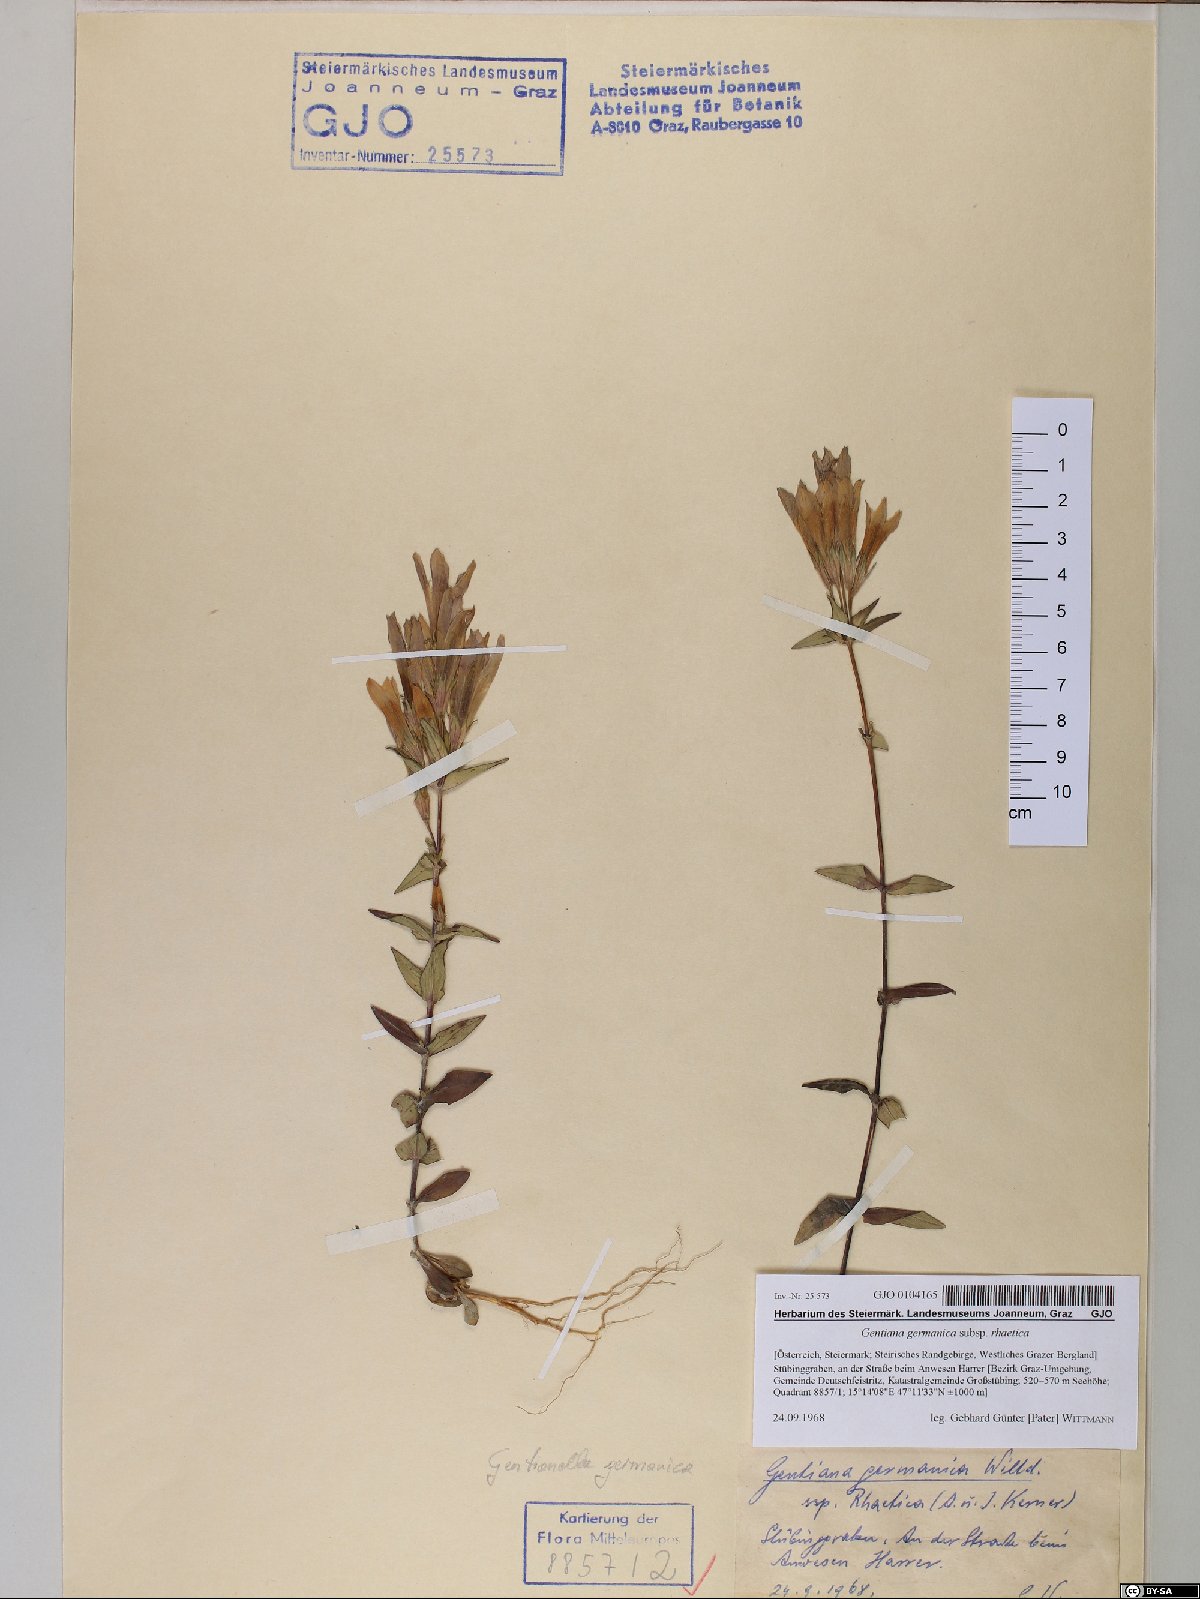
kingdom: Plantae
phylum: Tracheophyta
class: Magnoliopsida
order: Gentianales
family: Gentianaceae
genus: Gentianella
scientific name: Gentianella rhaetica
